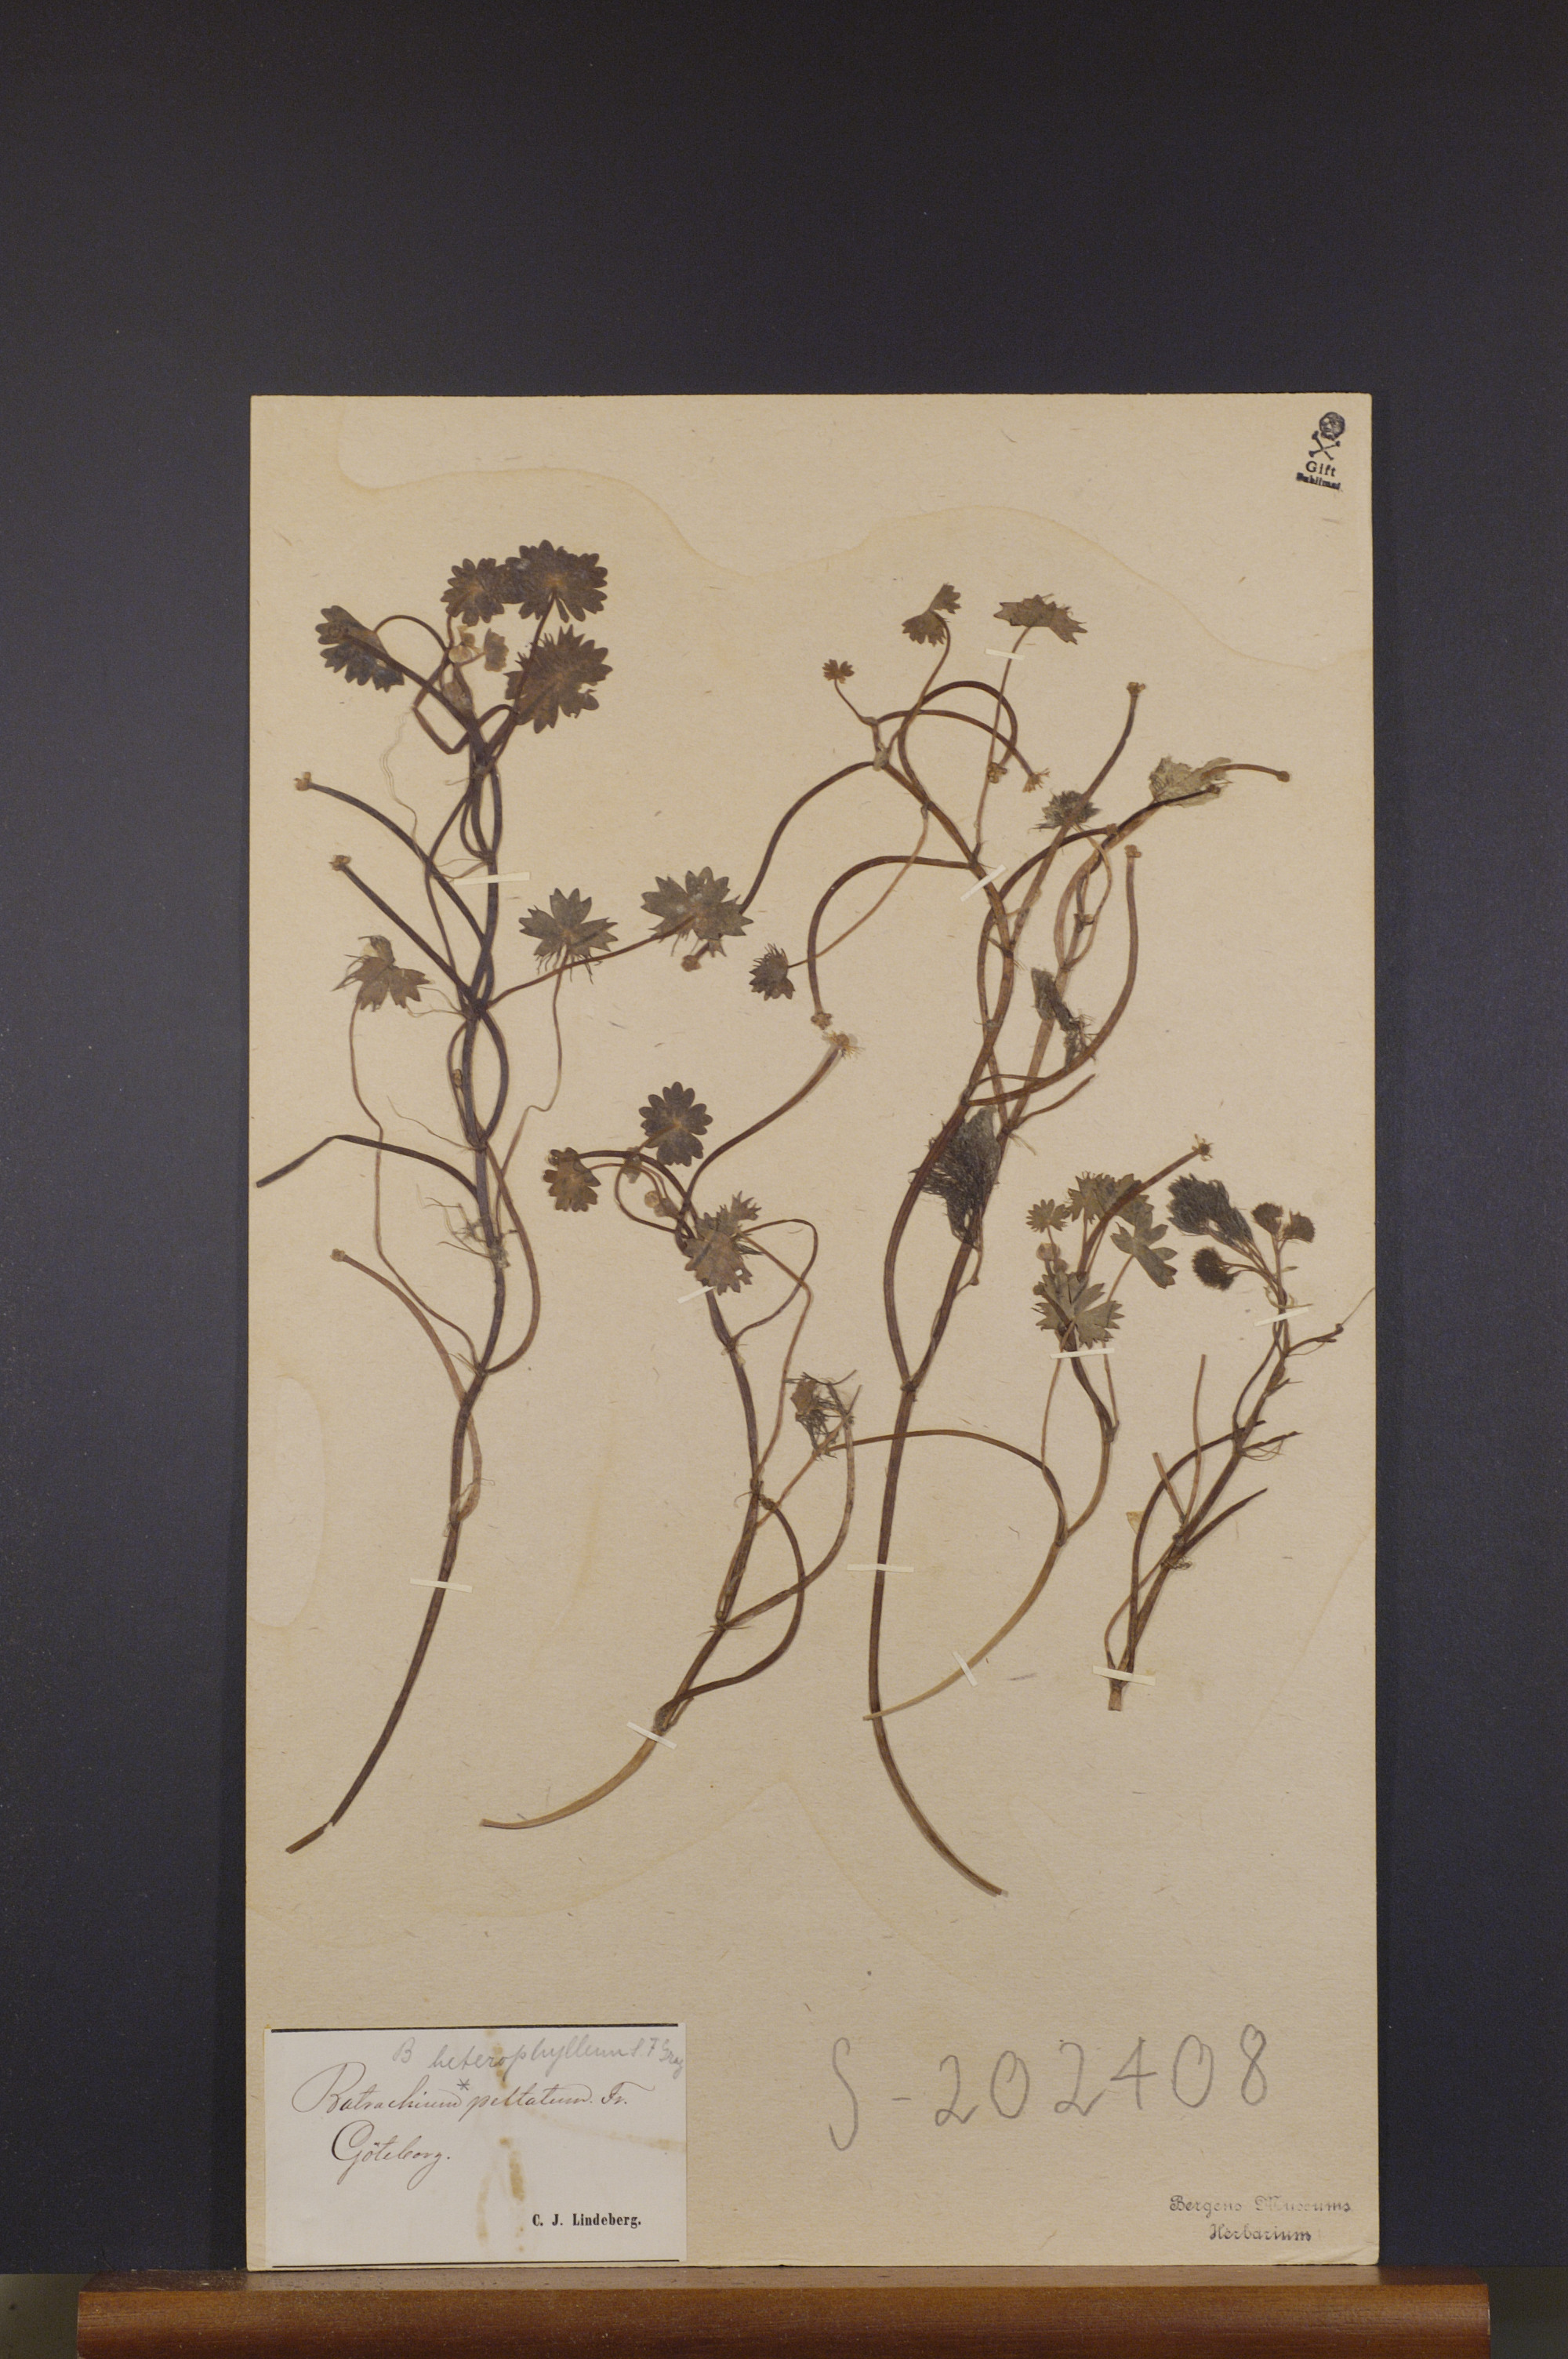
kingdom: Plantae
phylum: Tracheophyta
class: Magnoliopsida
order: Ranunculales
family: Ranunculaceae
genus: Ranunculus
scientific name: Ranunculus peltatus
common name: Pond water-crowfoot
